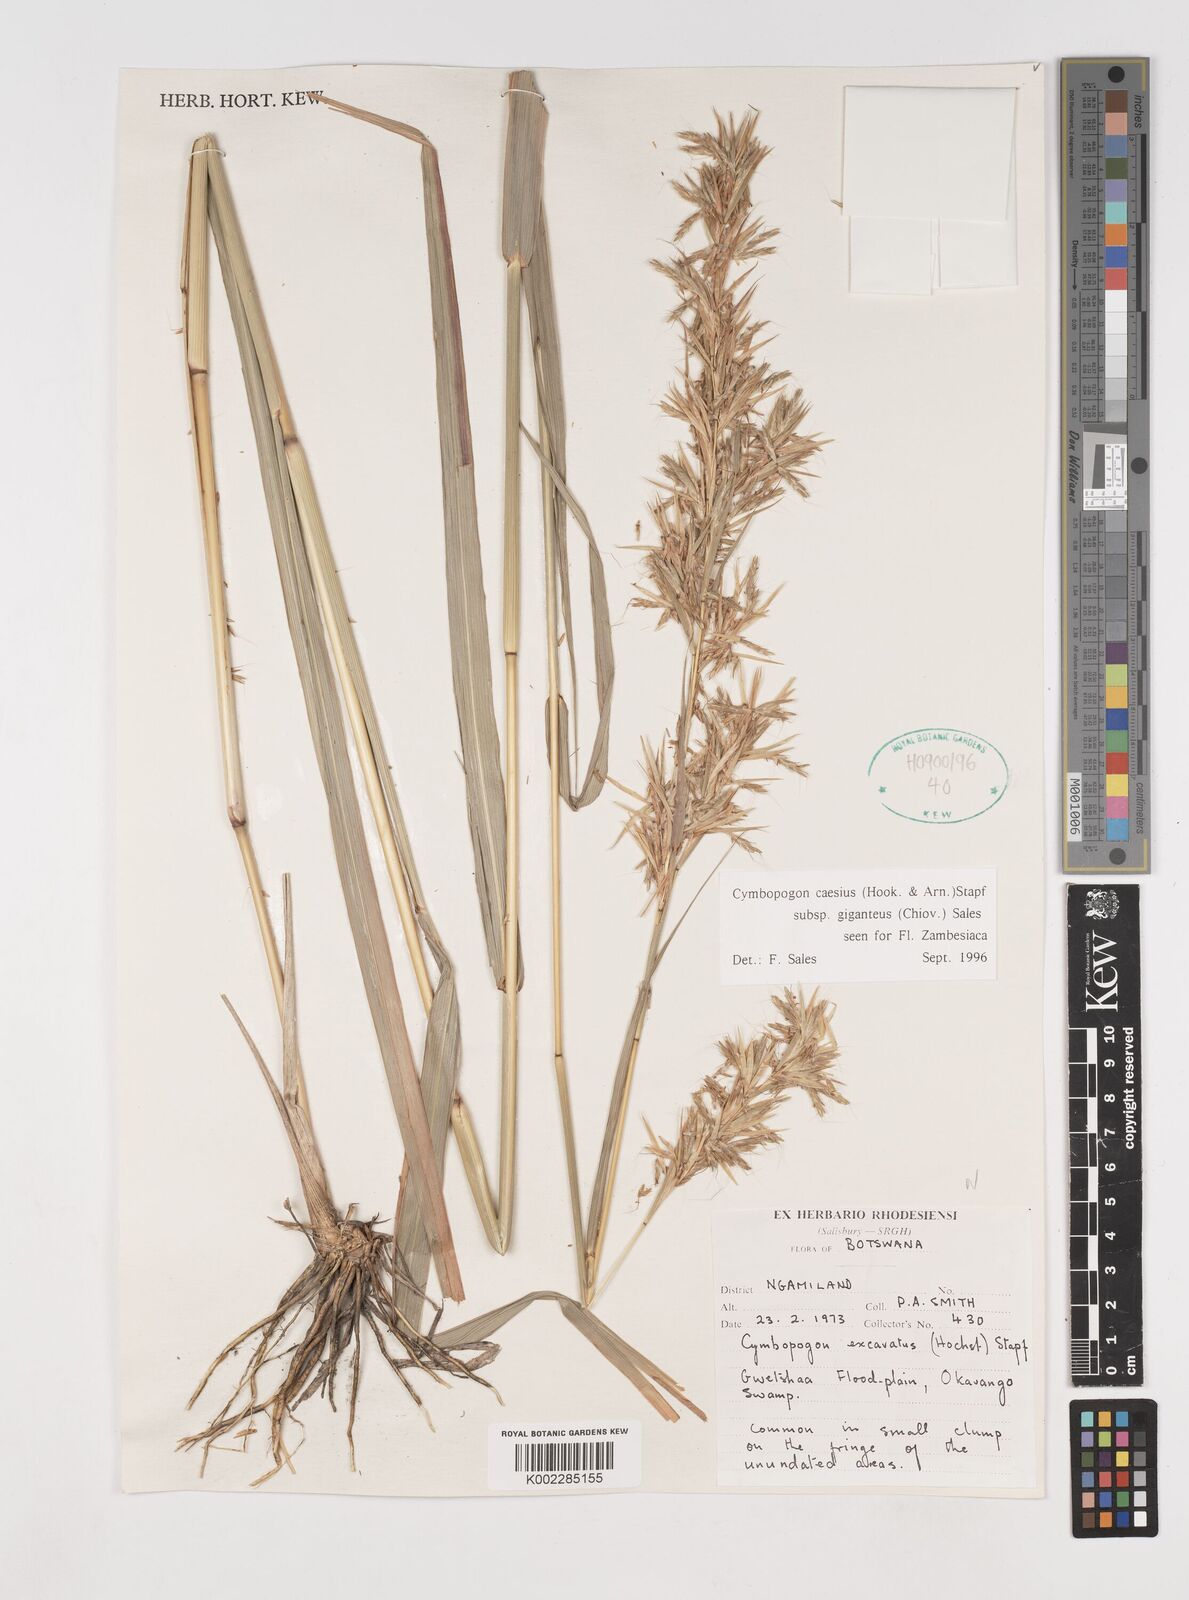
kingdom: Plantae
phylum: Tracheophyta
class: Liliopsida
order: Poales
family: Poaceae
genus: Cymbopogon
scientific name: Cymbopogon giganteus
